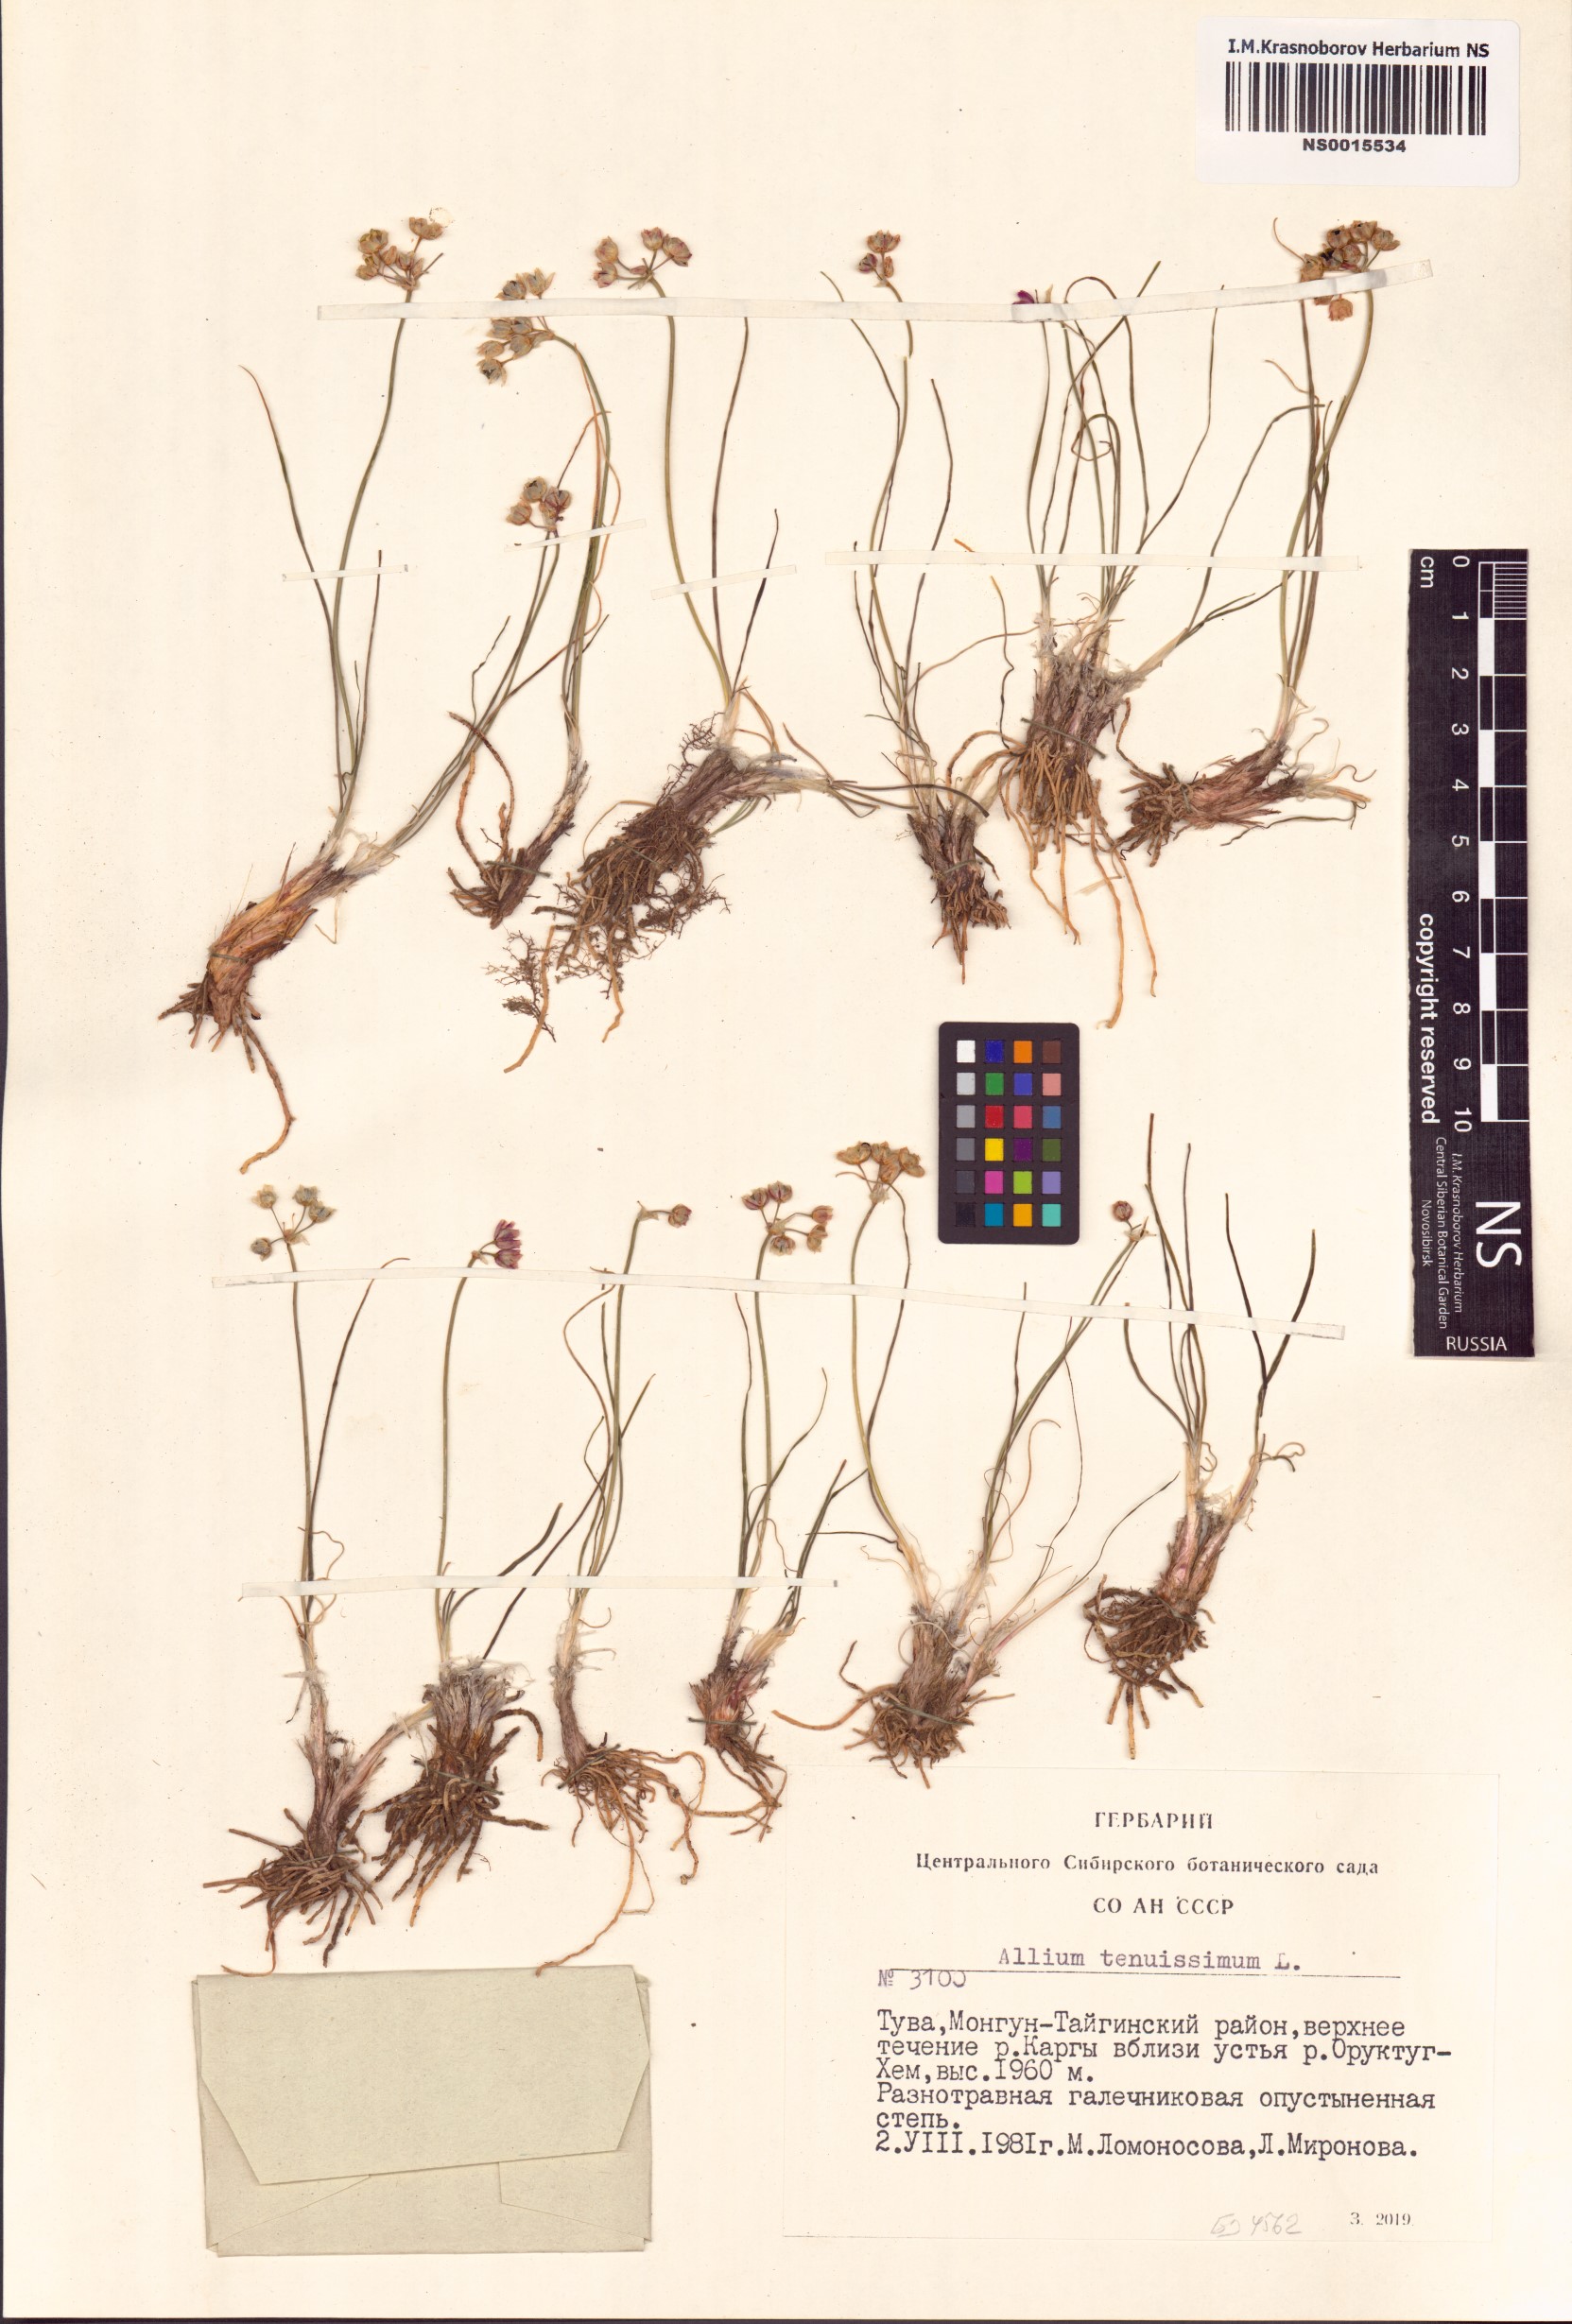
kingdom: Plantae
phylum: Tracheophyta
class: Liliopsida
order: Asparagales
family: Amaryllidaceae
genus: Allium
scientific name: Allium tenuissimum
